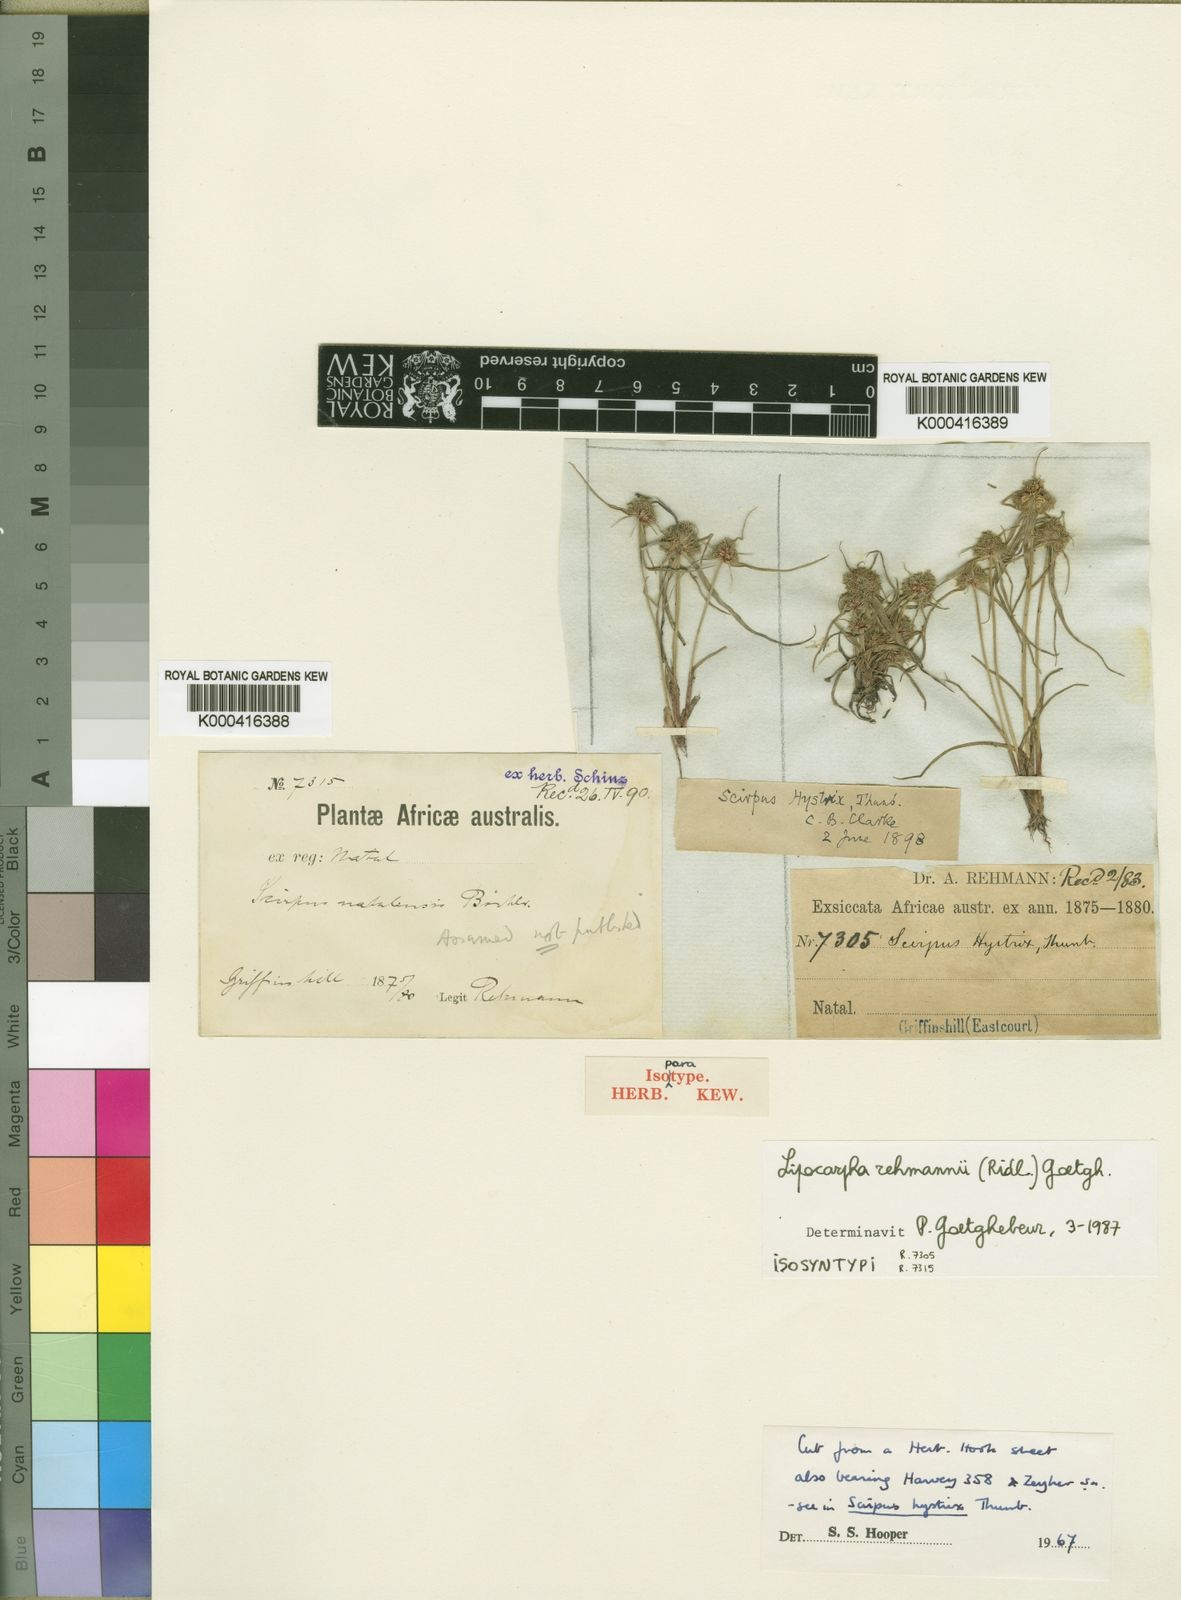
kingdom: Plantae
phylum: Tracheophyta
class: Liliopsida
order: Poales
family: Cyperaceae
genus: Cyperus
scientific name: Cyperus hystricoides
